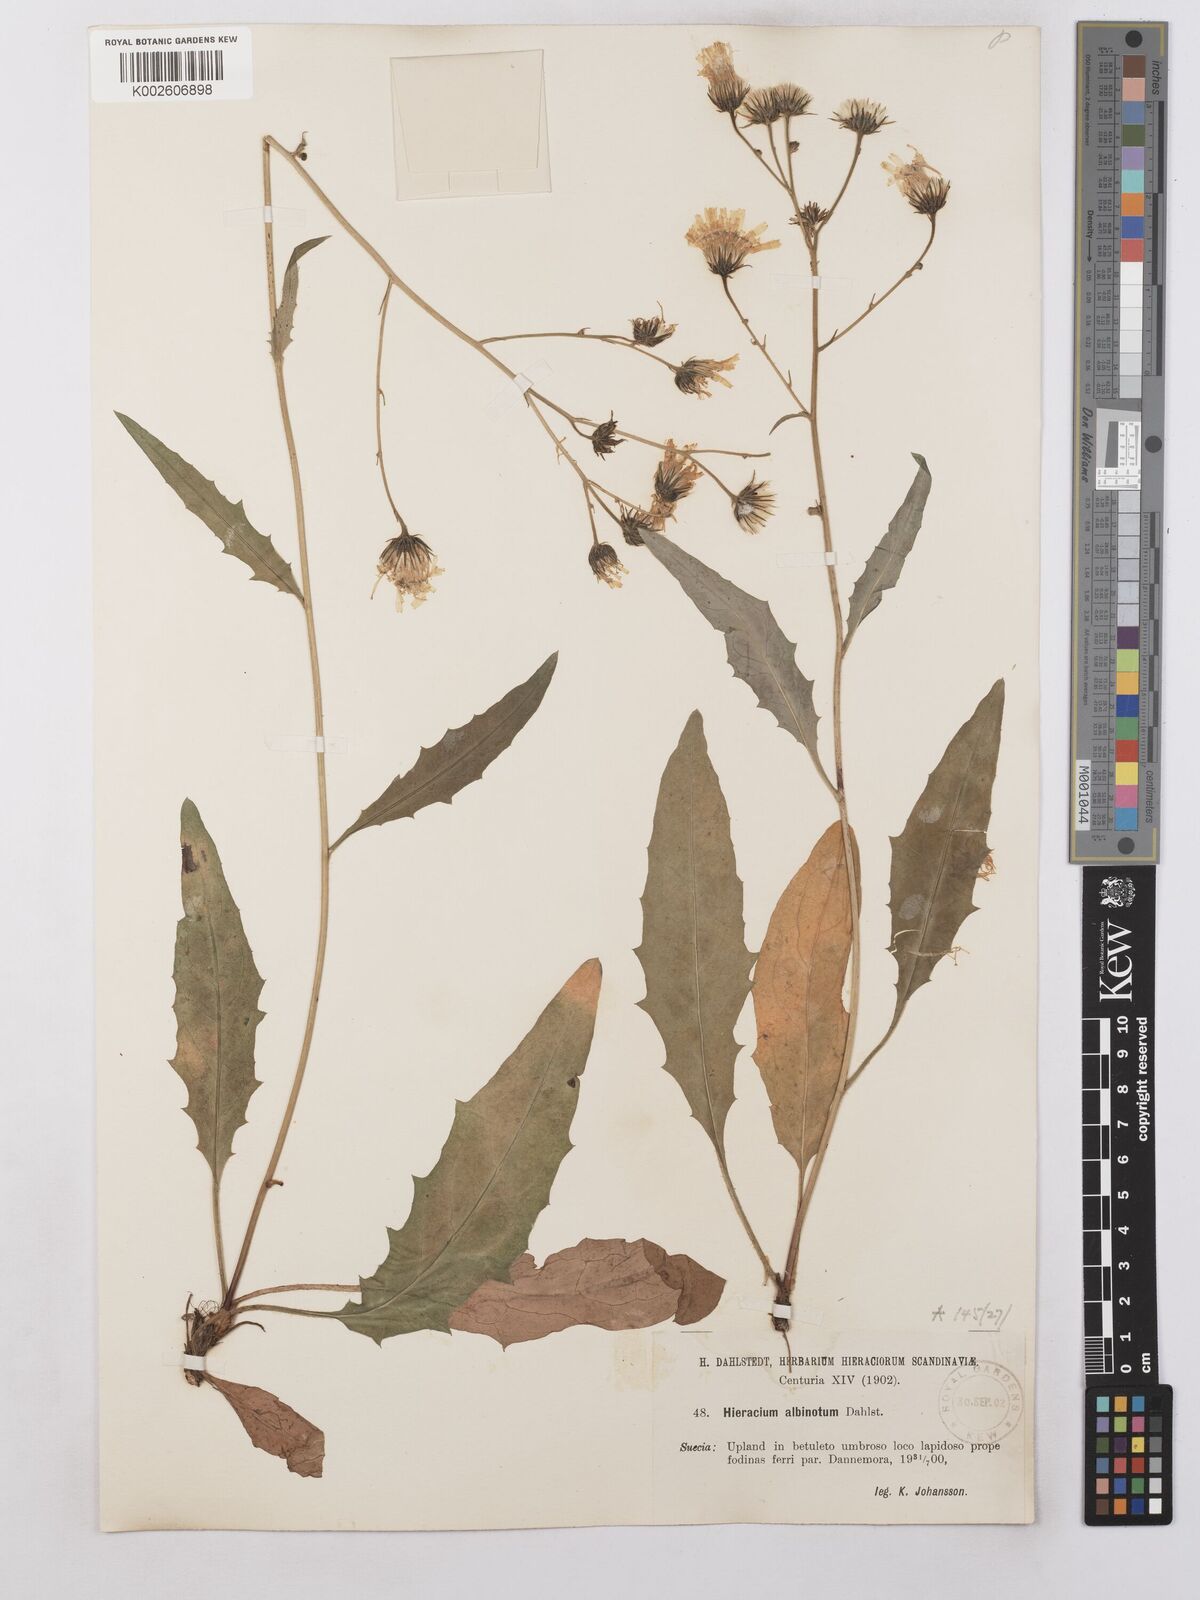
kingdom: Plantae
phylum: Tracheophyta
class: Magnoliopsida
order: Asterales
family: Asteraceae
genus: Hieracium
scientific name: Hieracium levicaule
